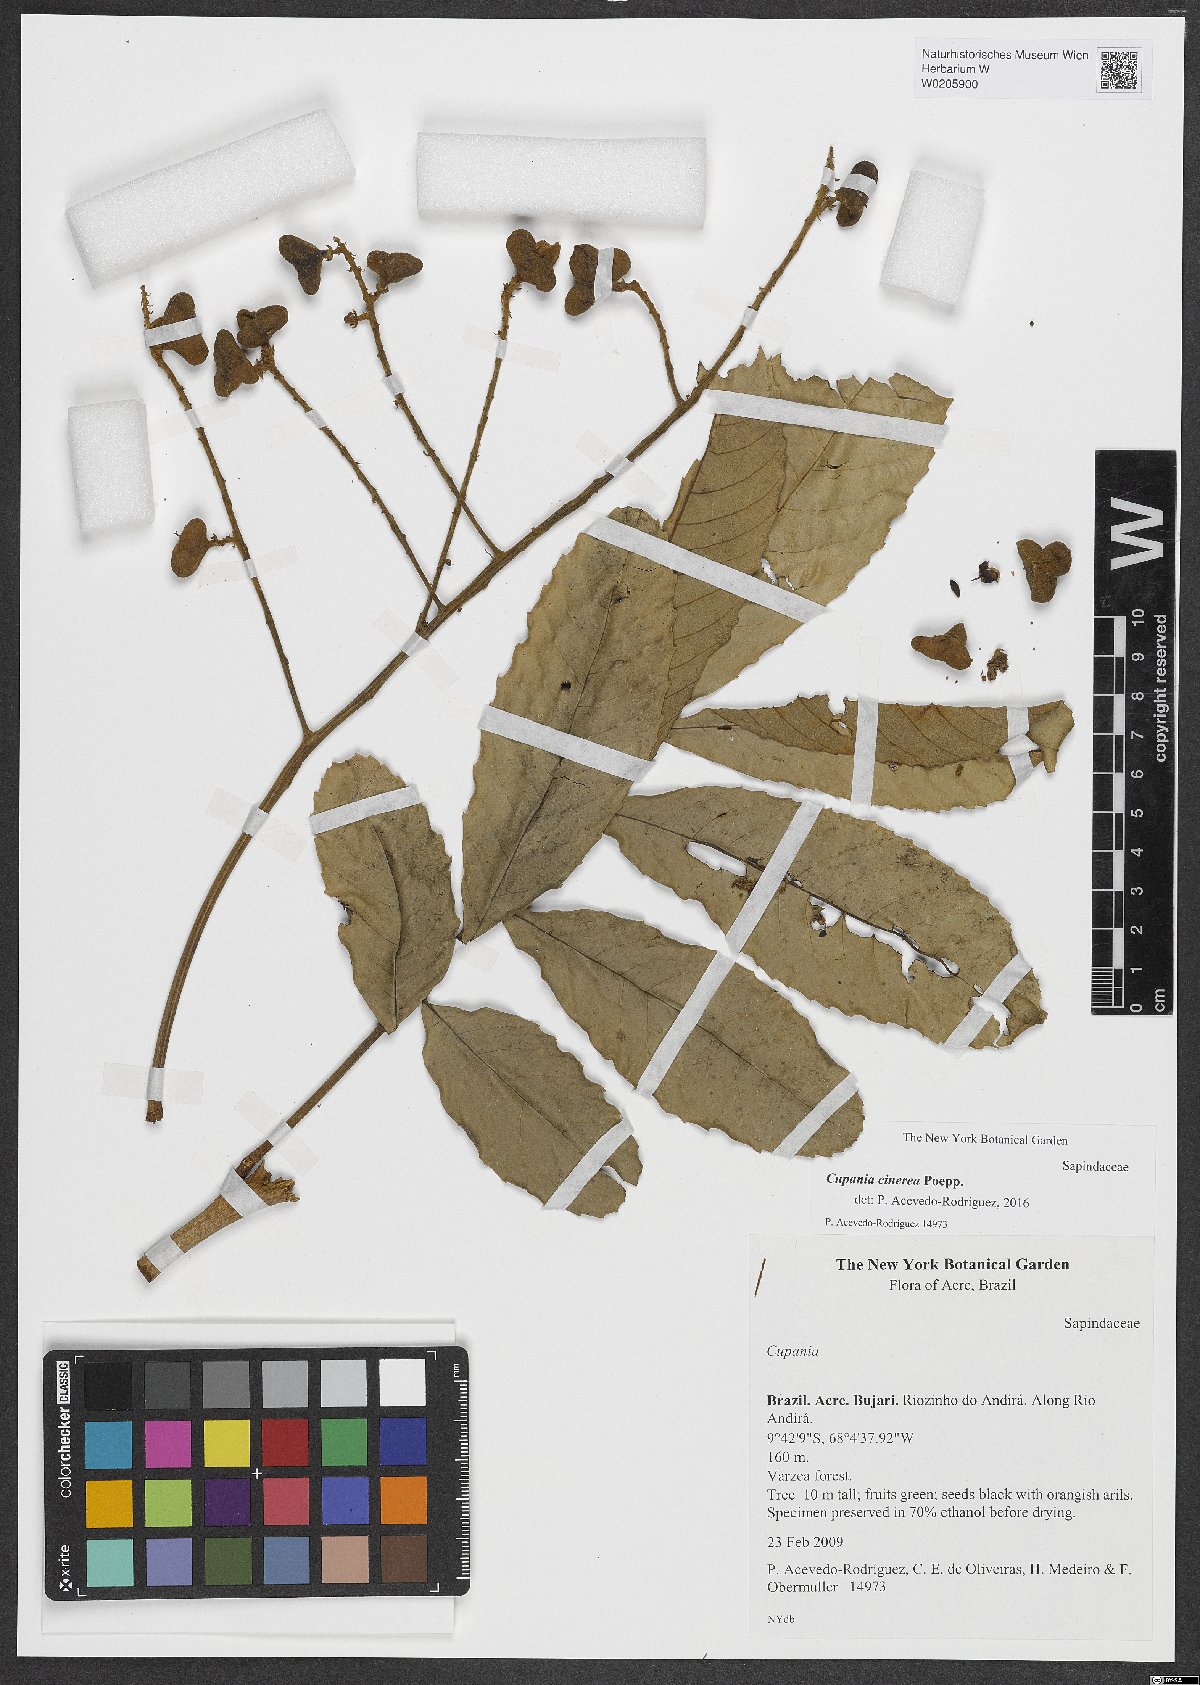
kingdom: Plantae
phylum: Tracheophyta
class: Magnoliopsida
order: Sapindales
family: Sapindaceae
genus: Cupania
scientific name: Cupania cinerea
